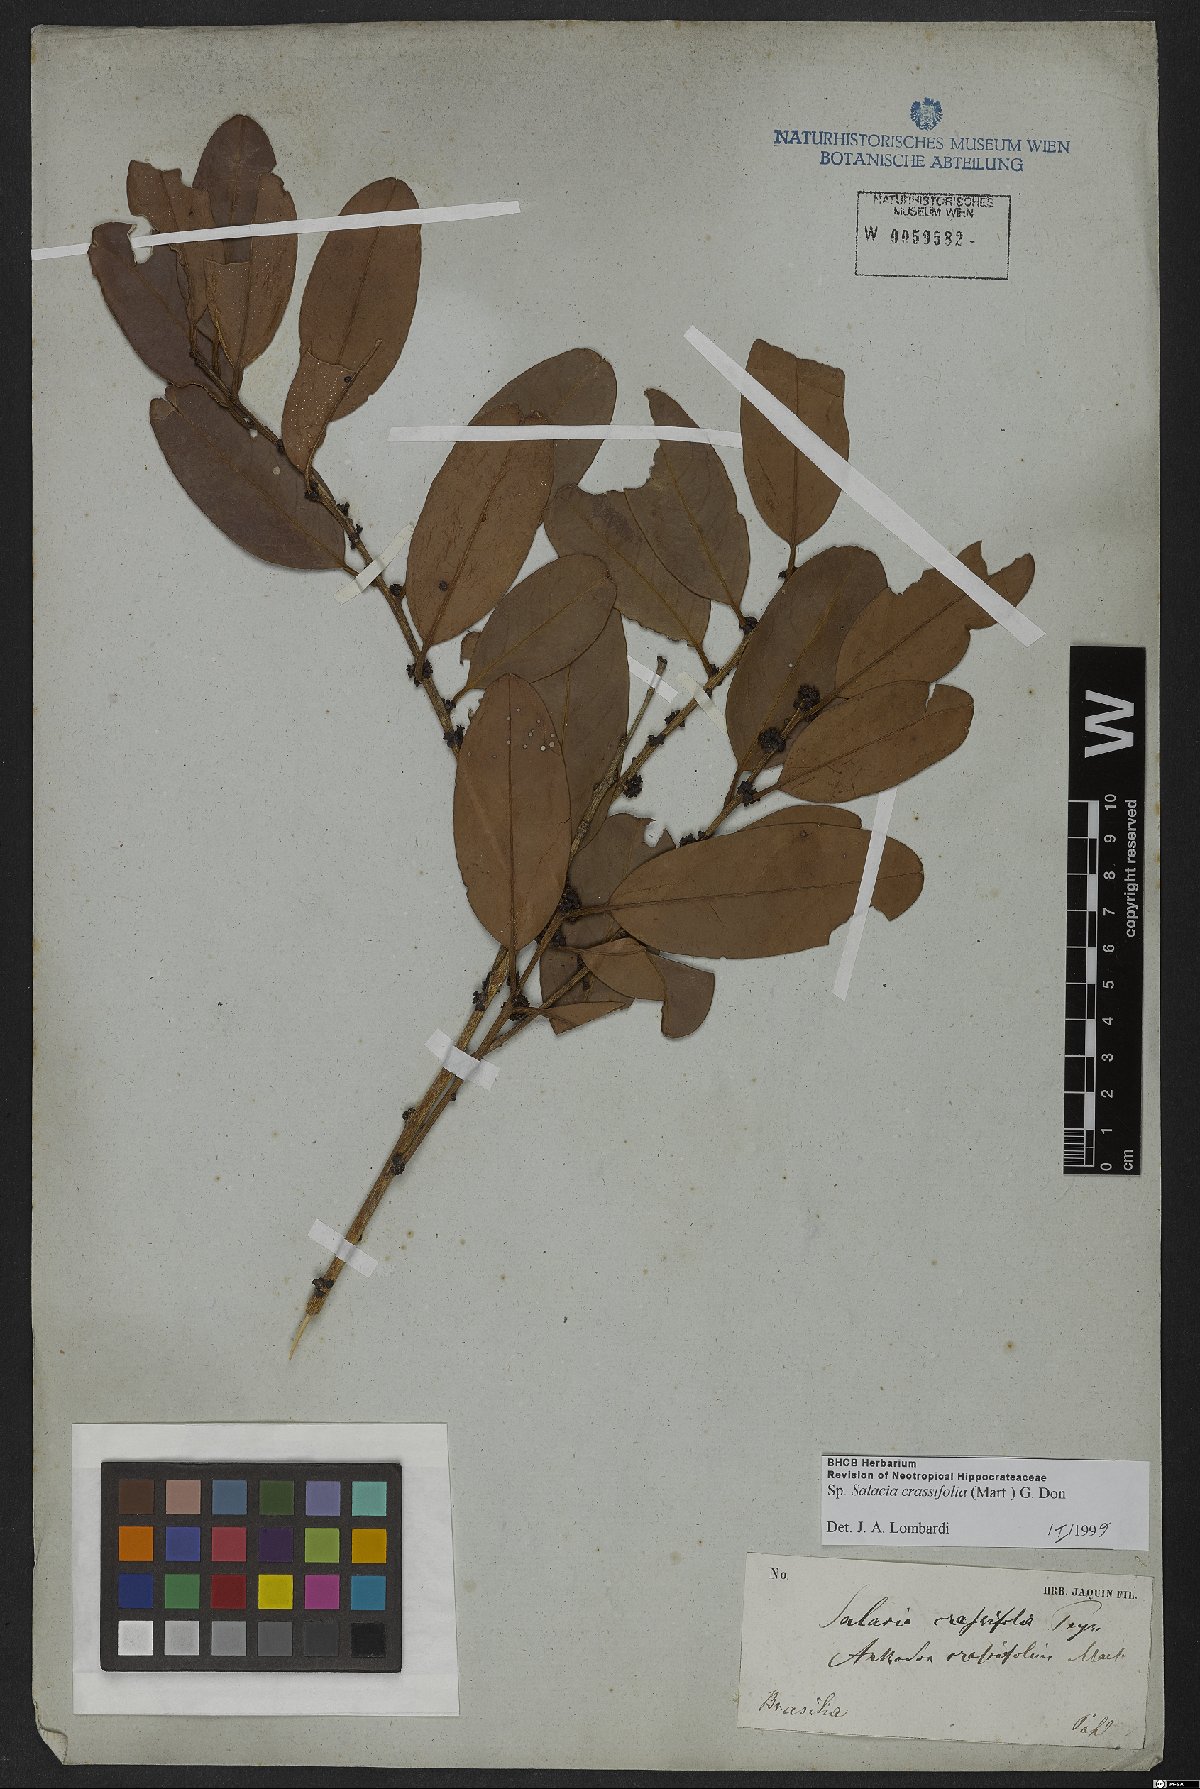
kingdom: Plantae
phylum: Tracheophyta
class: Magnoliopsida
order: Celastrales
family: Celastraceae
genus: Salacia
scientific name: Salacia crassifolia
